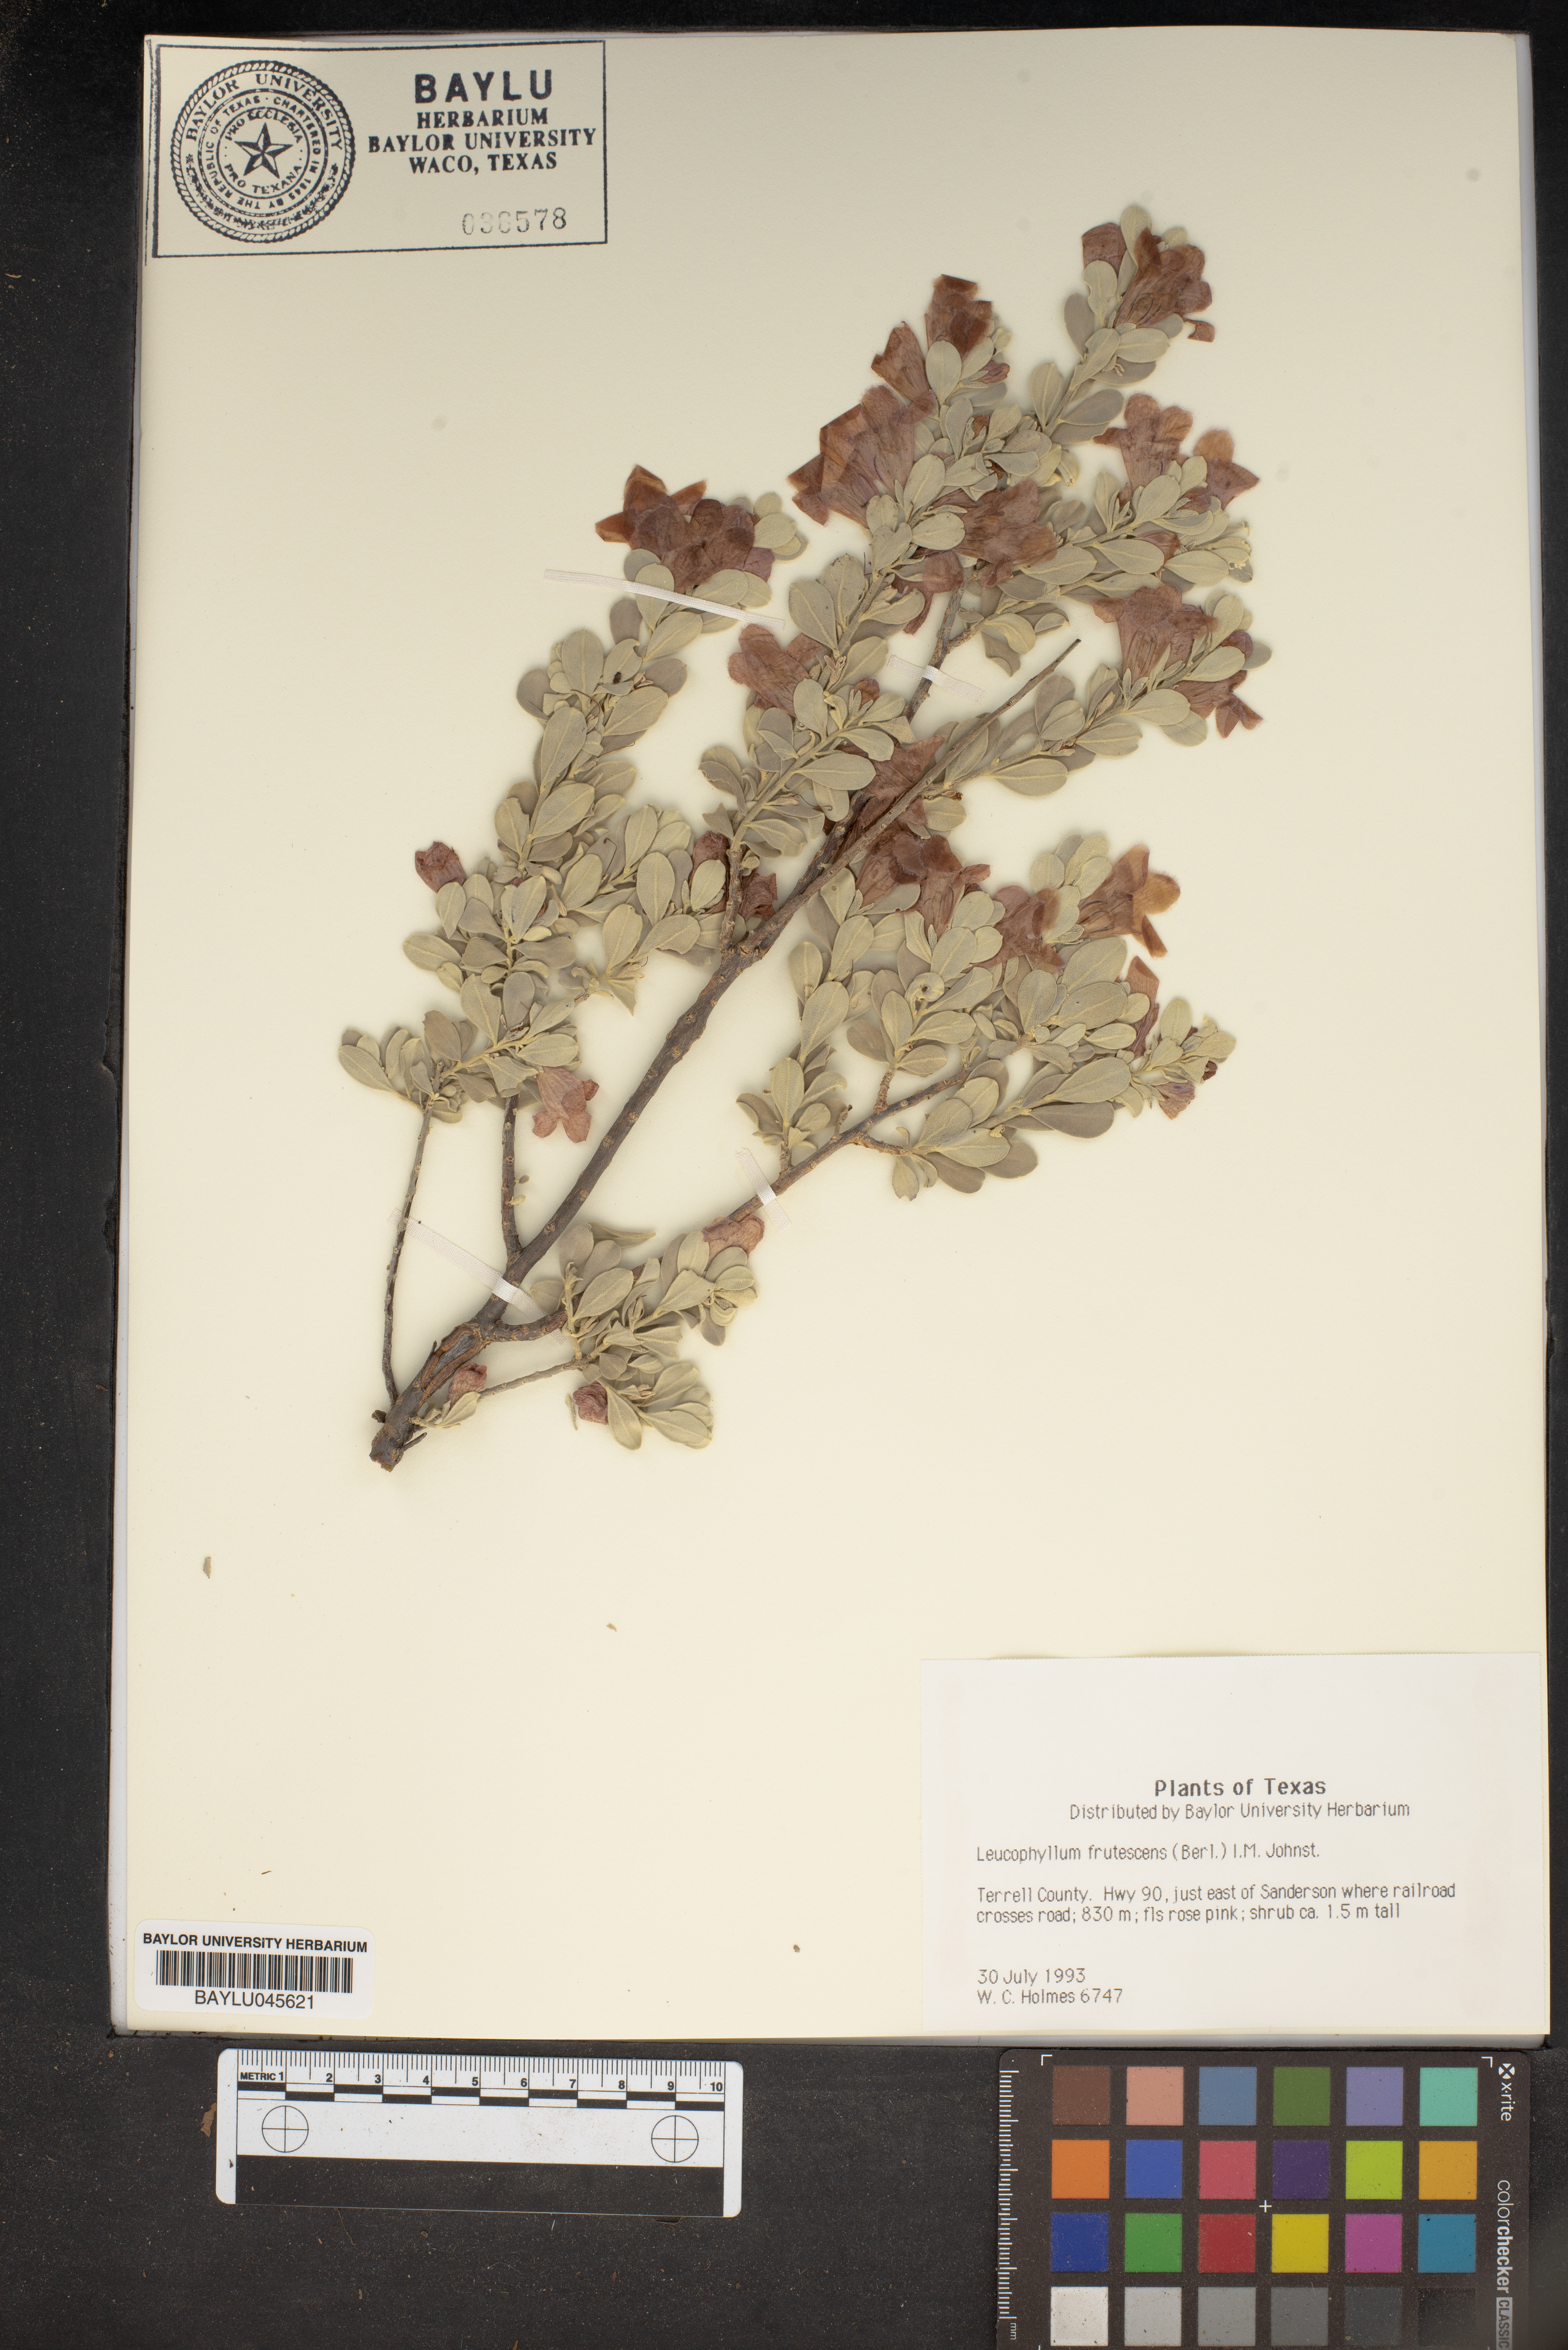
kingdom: Plantae
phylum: Tracheophyta
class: Magnoliopsida
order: Lamiales
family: Scrophulariaceae
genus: Leucophyllum
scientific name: Leucophyllum frutescens
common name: Texas silverleaf
